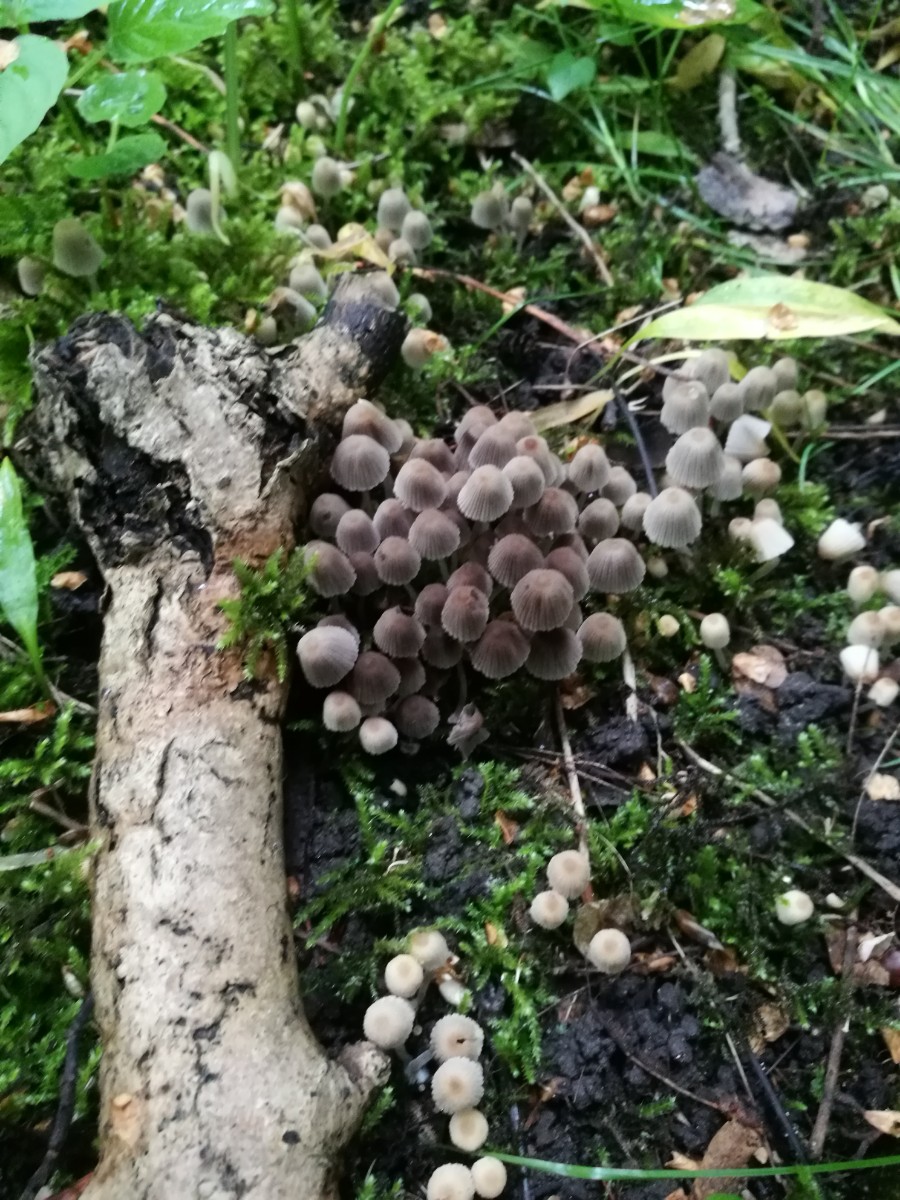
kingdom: Fungi
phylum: Basidiomycota
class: Agaricomycetes
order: Agaricales
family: Psathyrellaceae
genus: Coprinellus
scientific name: Coprinellus disseminatus
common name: bredsået blækhat
